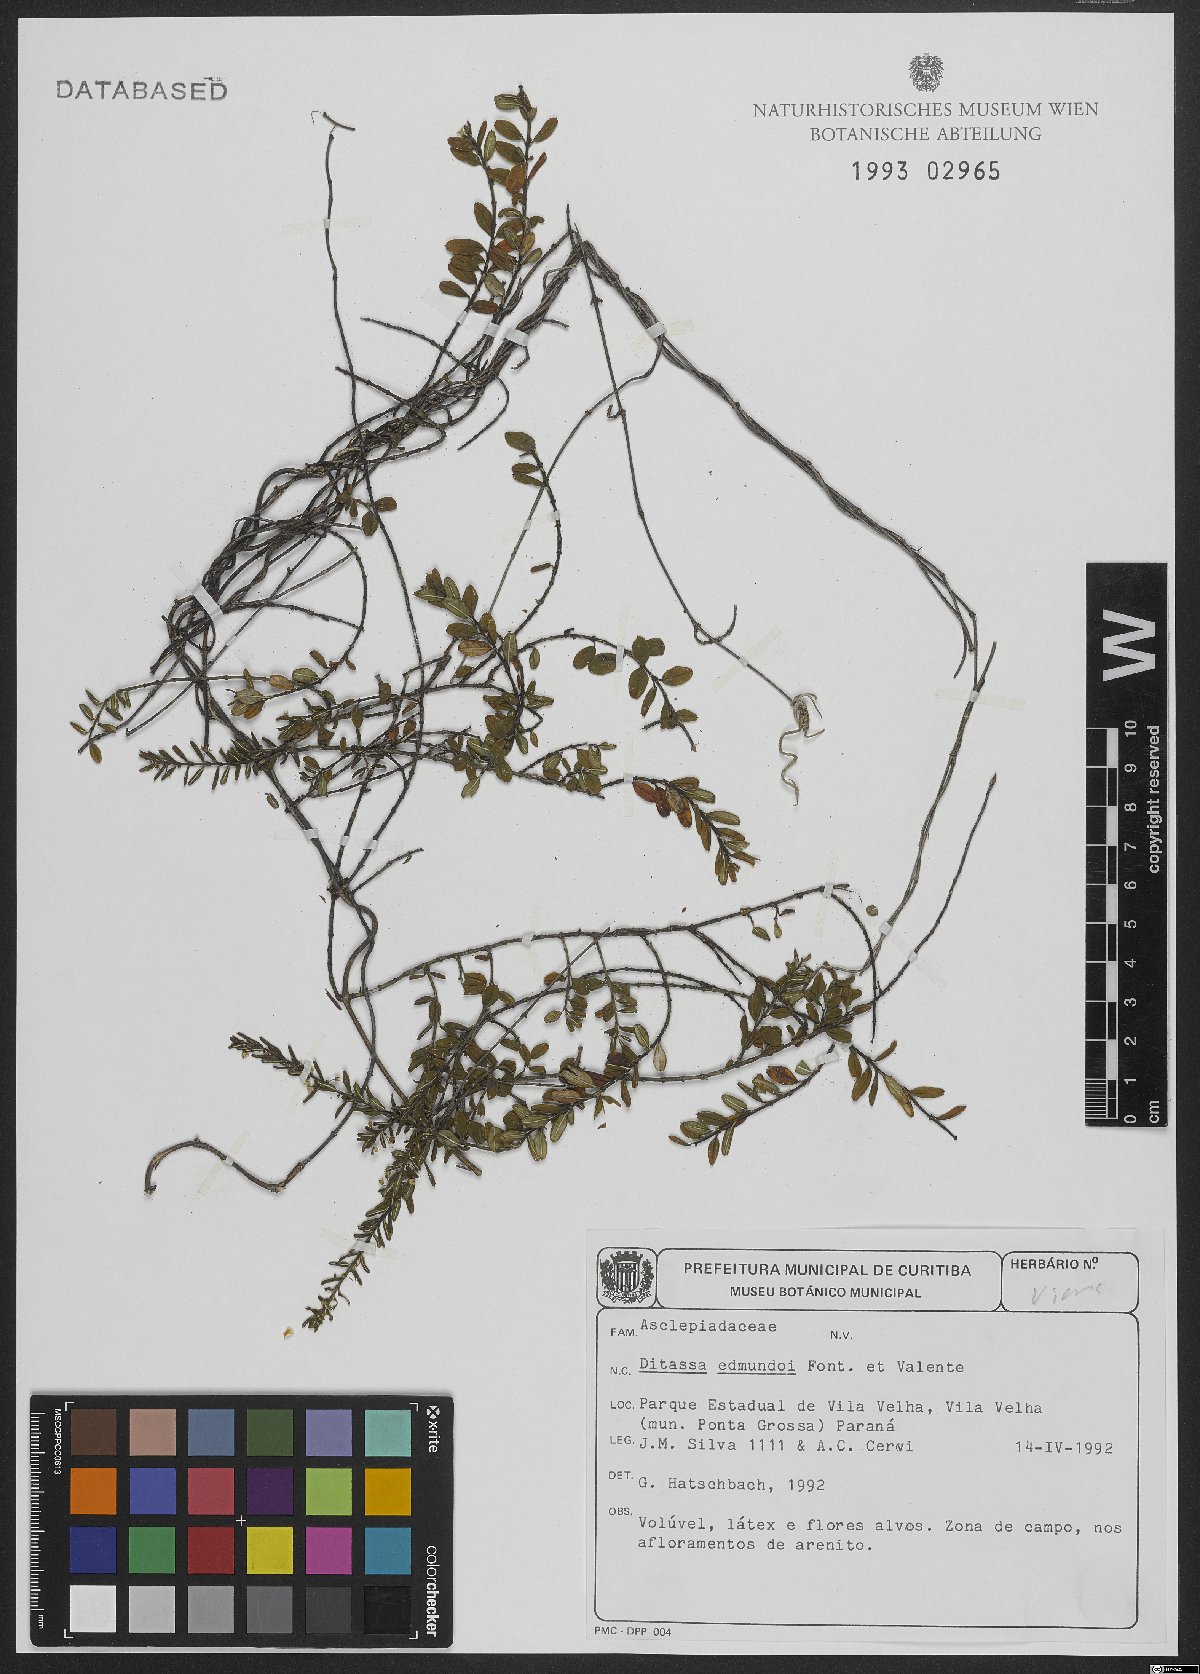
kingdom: Plantae
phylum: Tracheophyta
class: Magnoliopsida
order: Gentianales
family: Apocynaceae
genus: Ditassa
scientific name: Ditassa edmundoi
